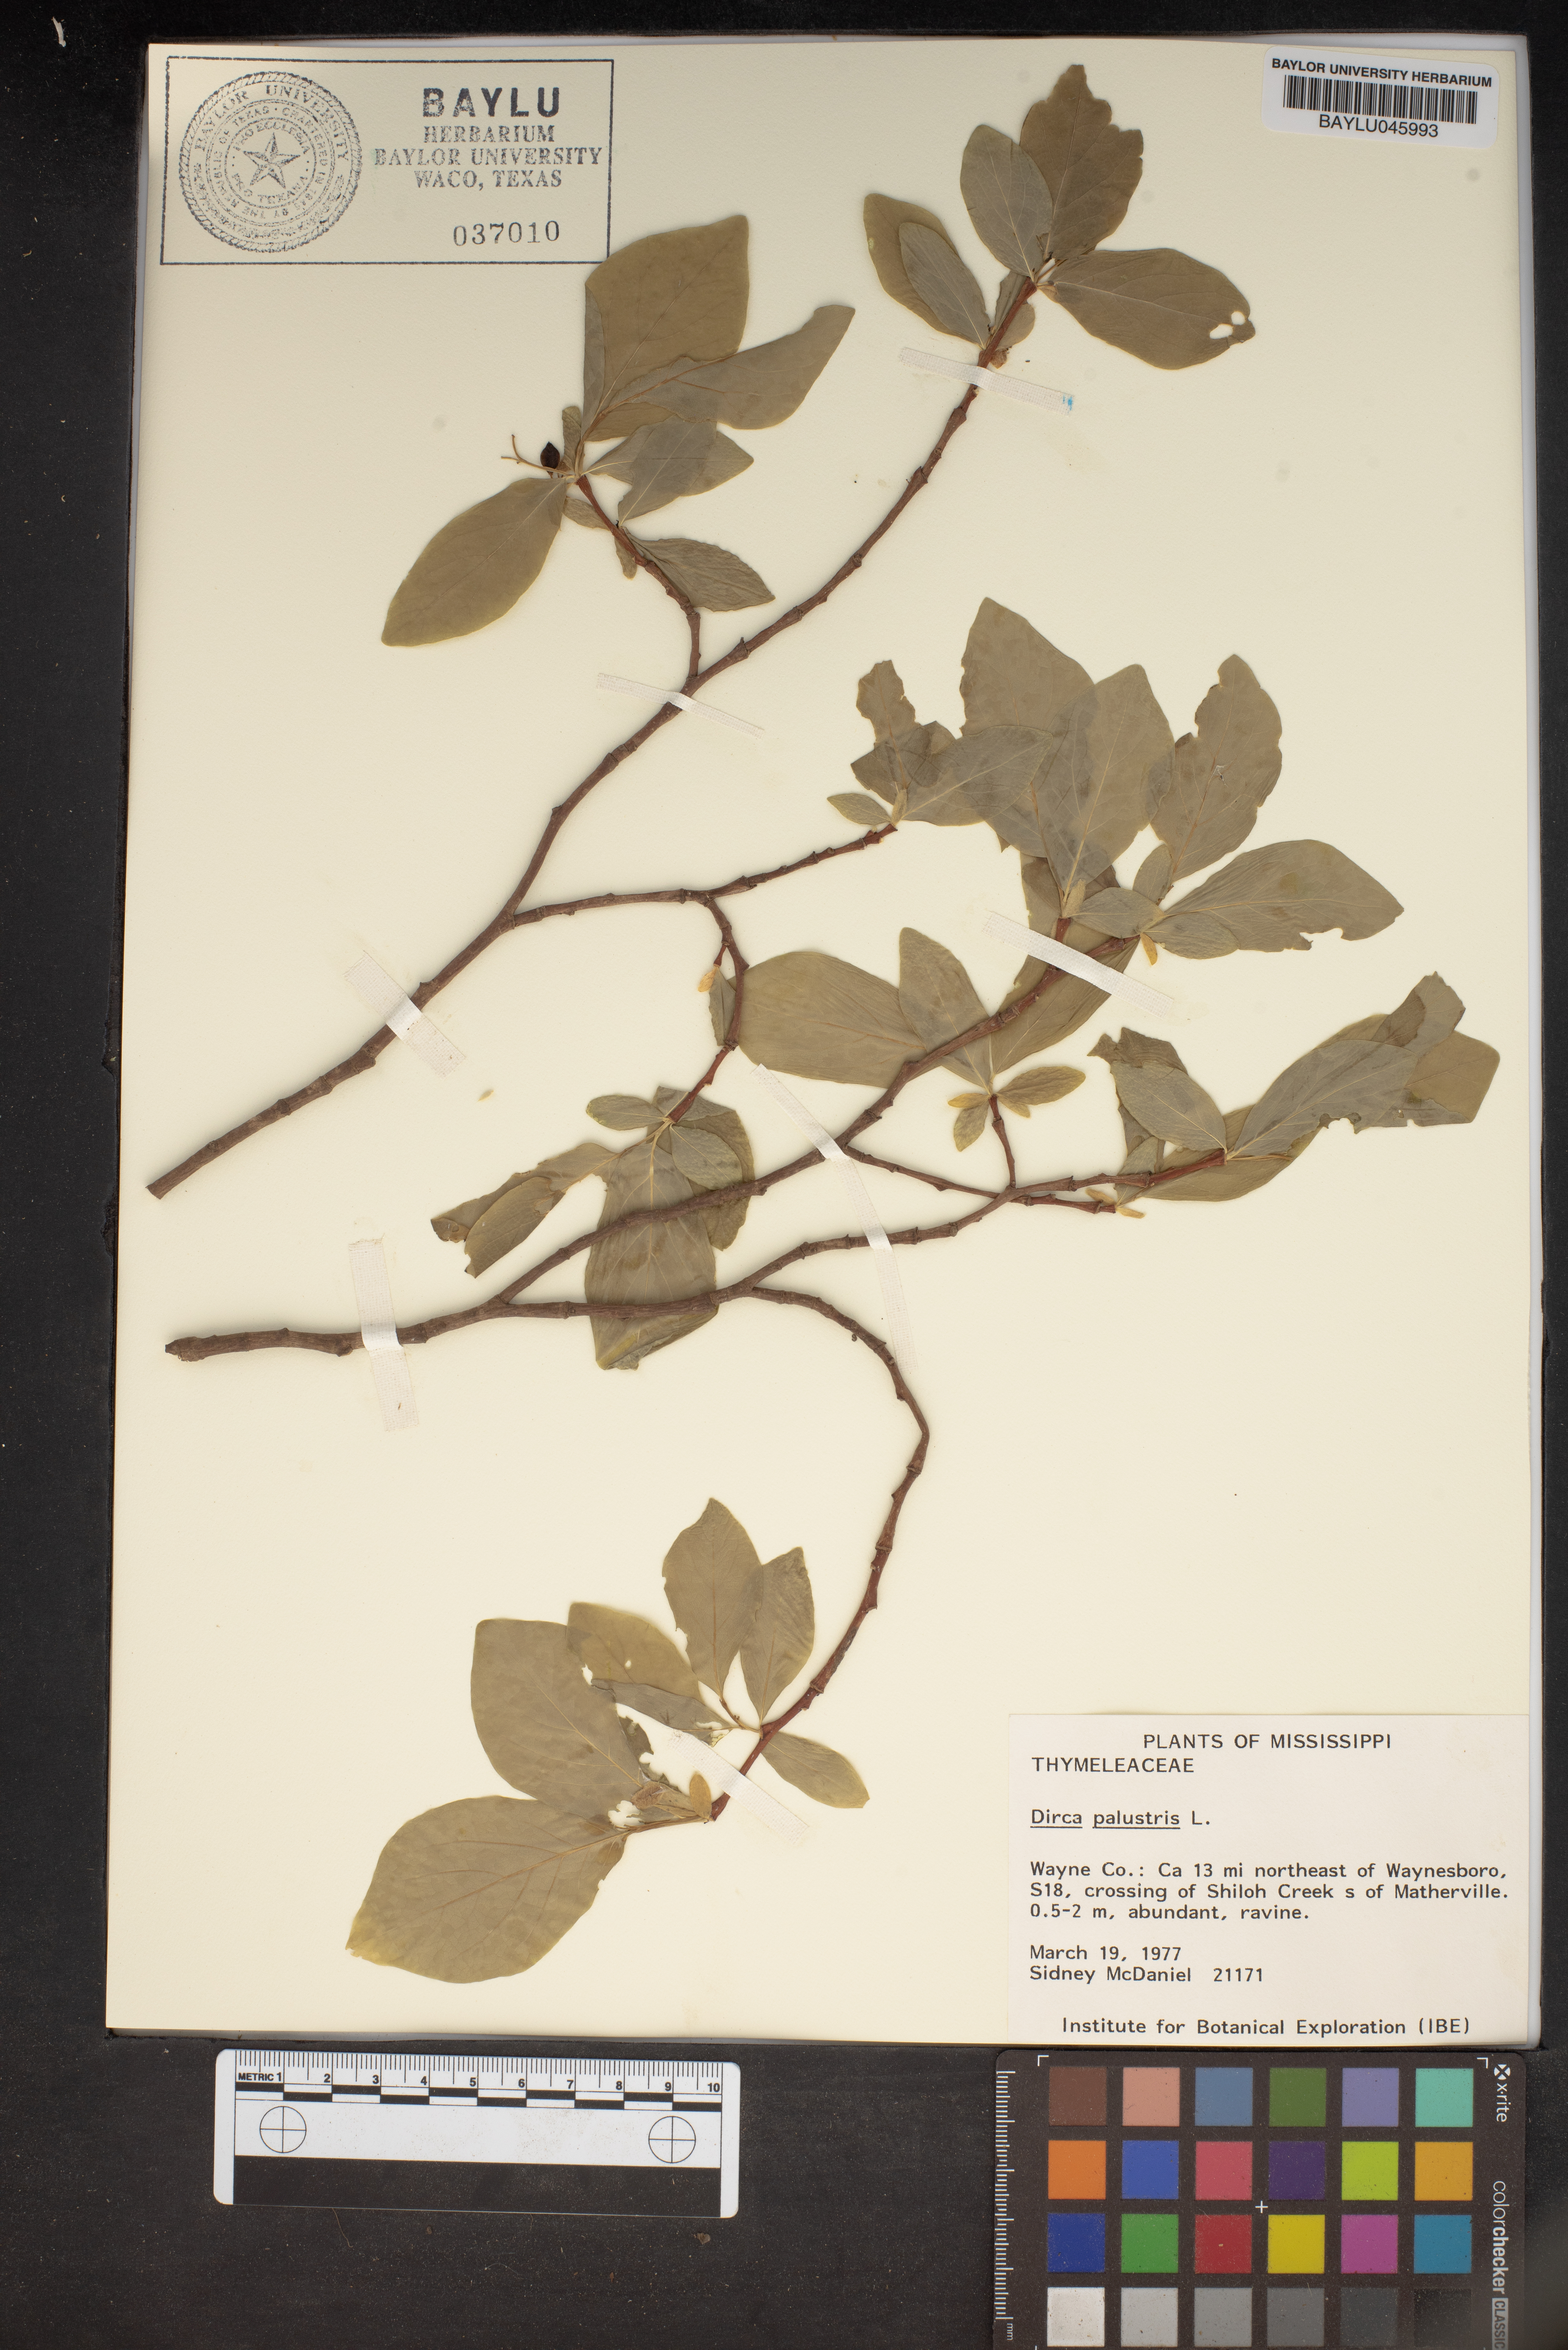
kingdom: Plantae
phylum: Tracheophyta
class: Magnoliopsida
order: Malvales
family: Thymelaeaceae
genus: Dirca
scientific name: Dirca palustris
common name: Leatherwood
